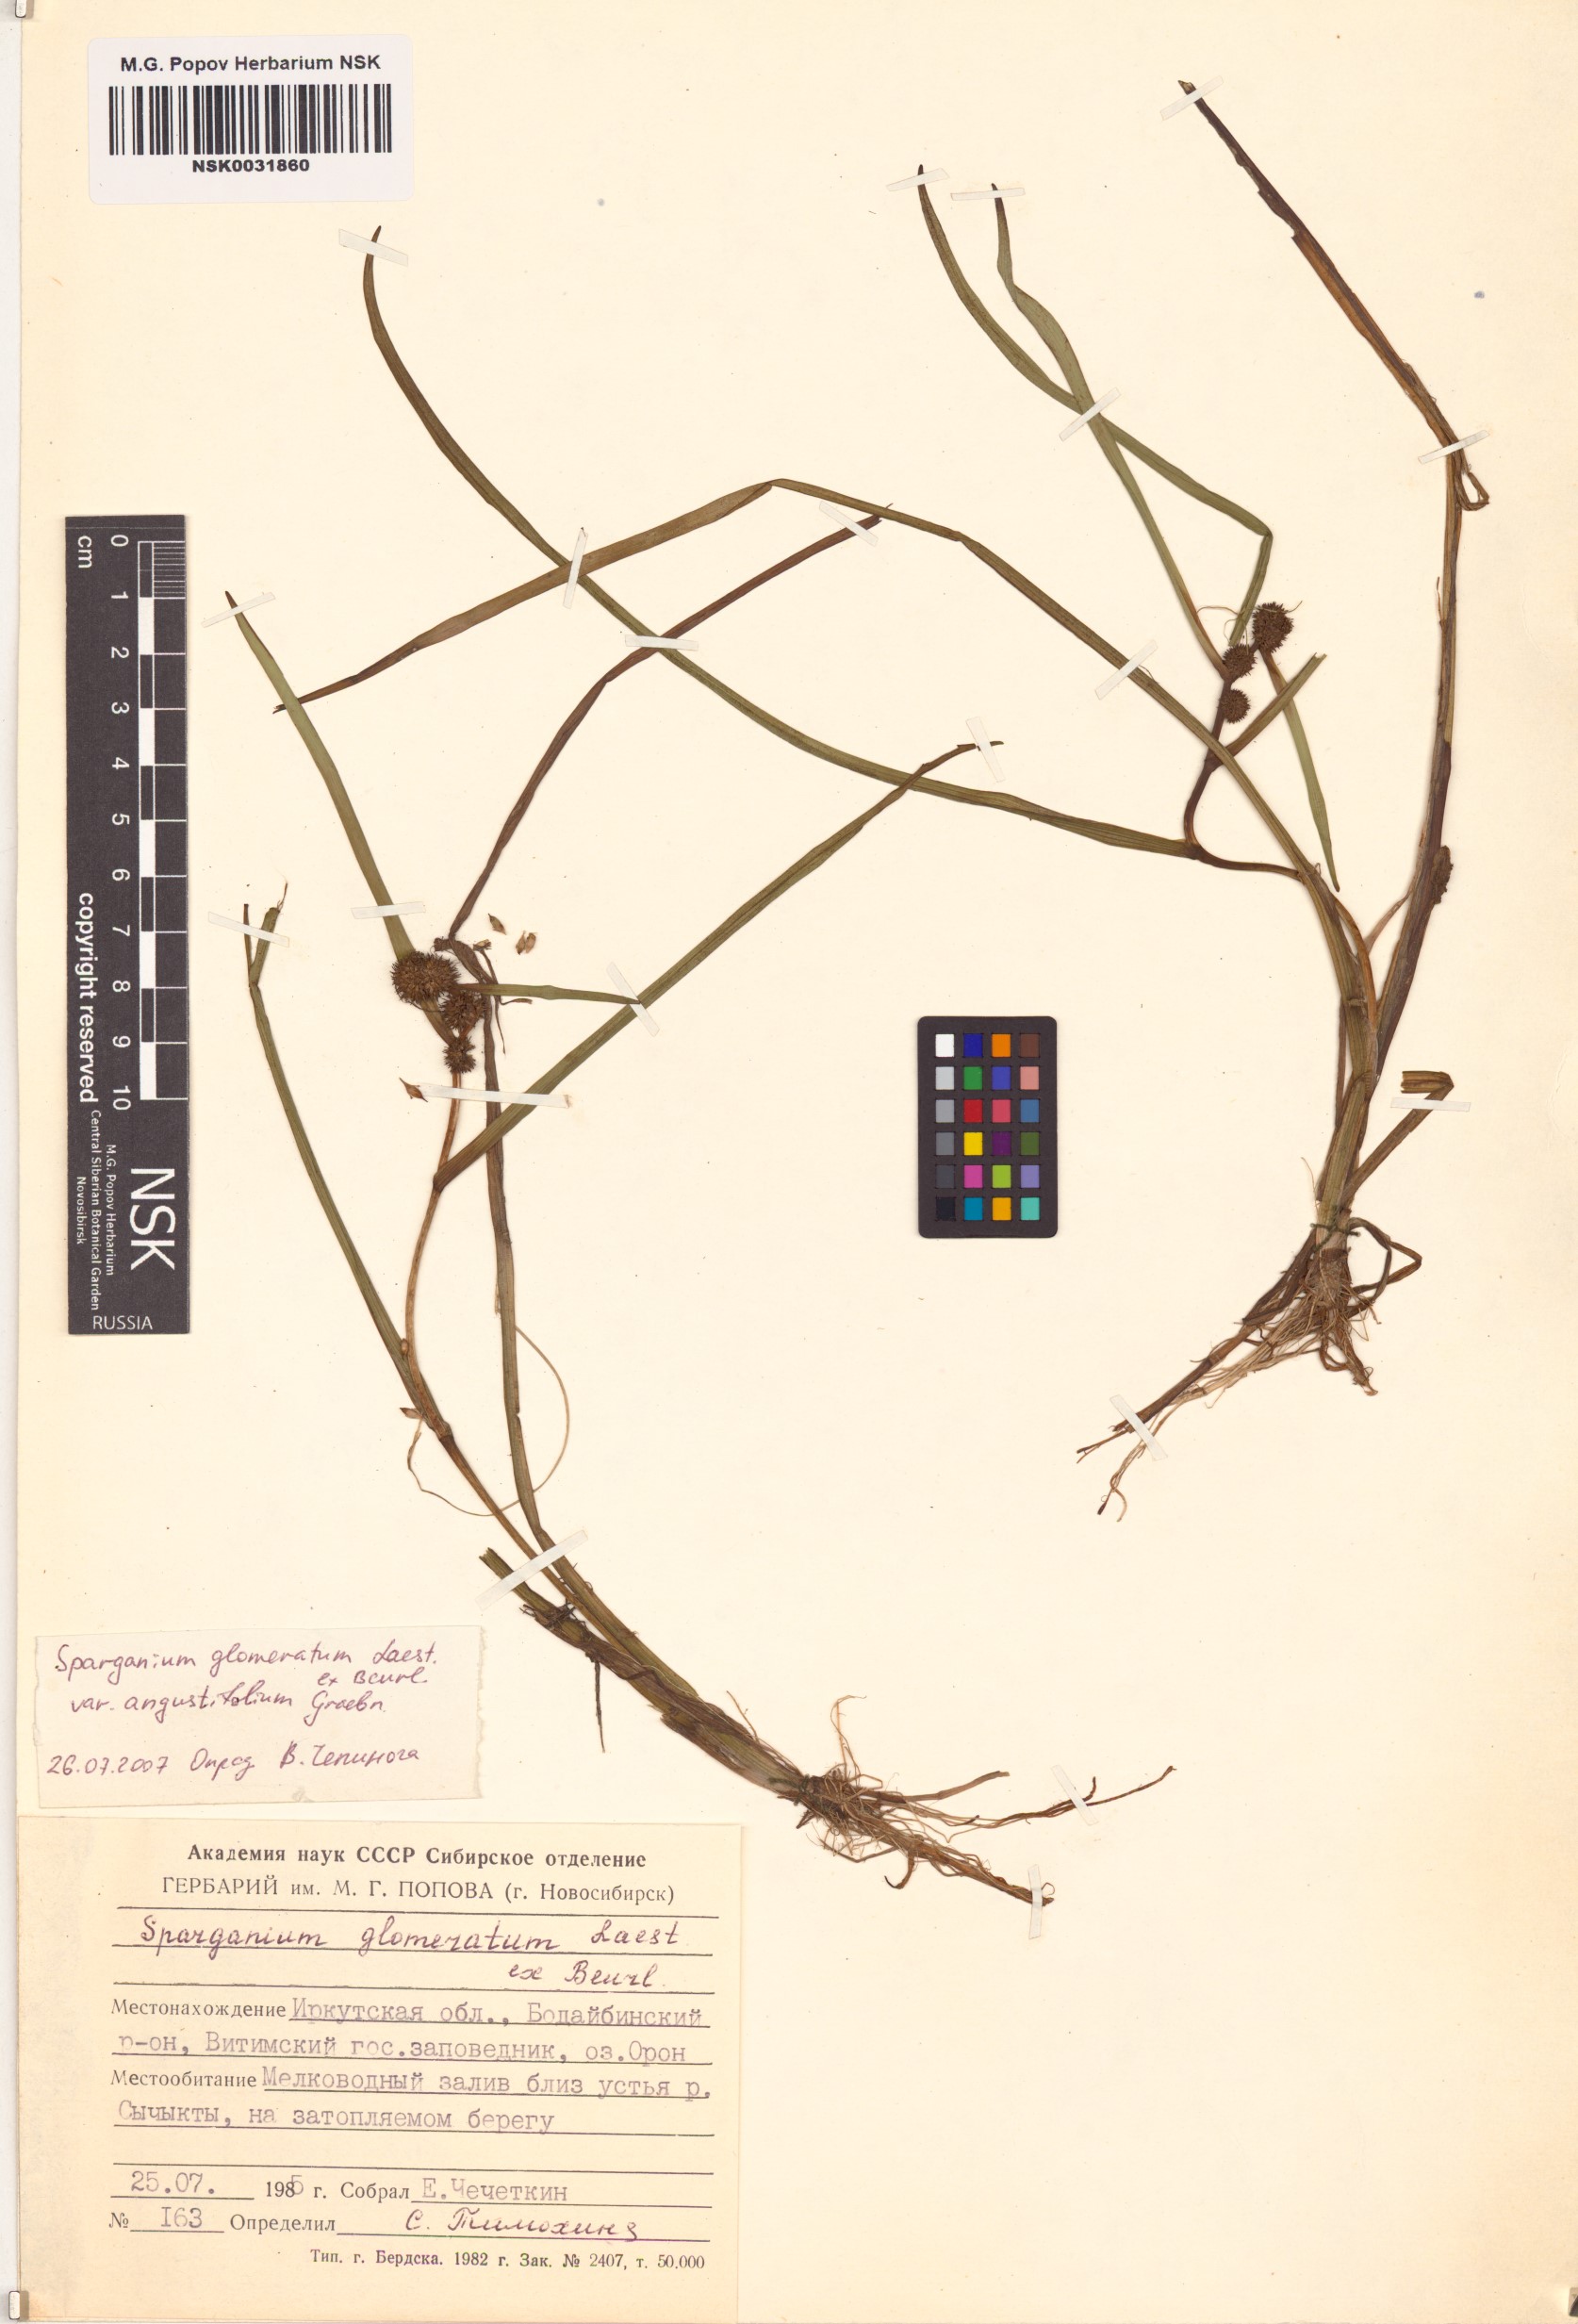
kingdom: Plantae
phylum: Tracheophyta
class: Liliopsida
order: Poales
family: Typhaceae
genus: Sparganium
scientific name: Sparganium glomeratum
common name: Clustered burreed
